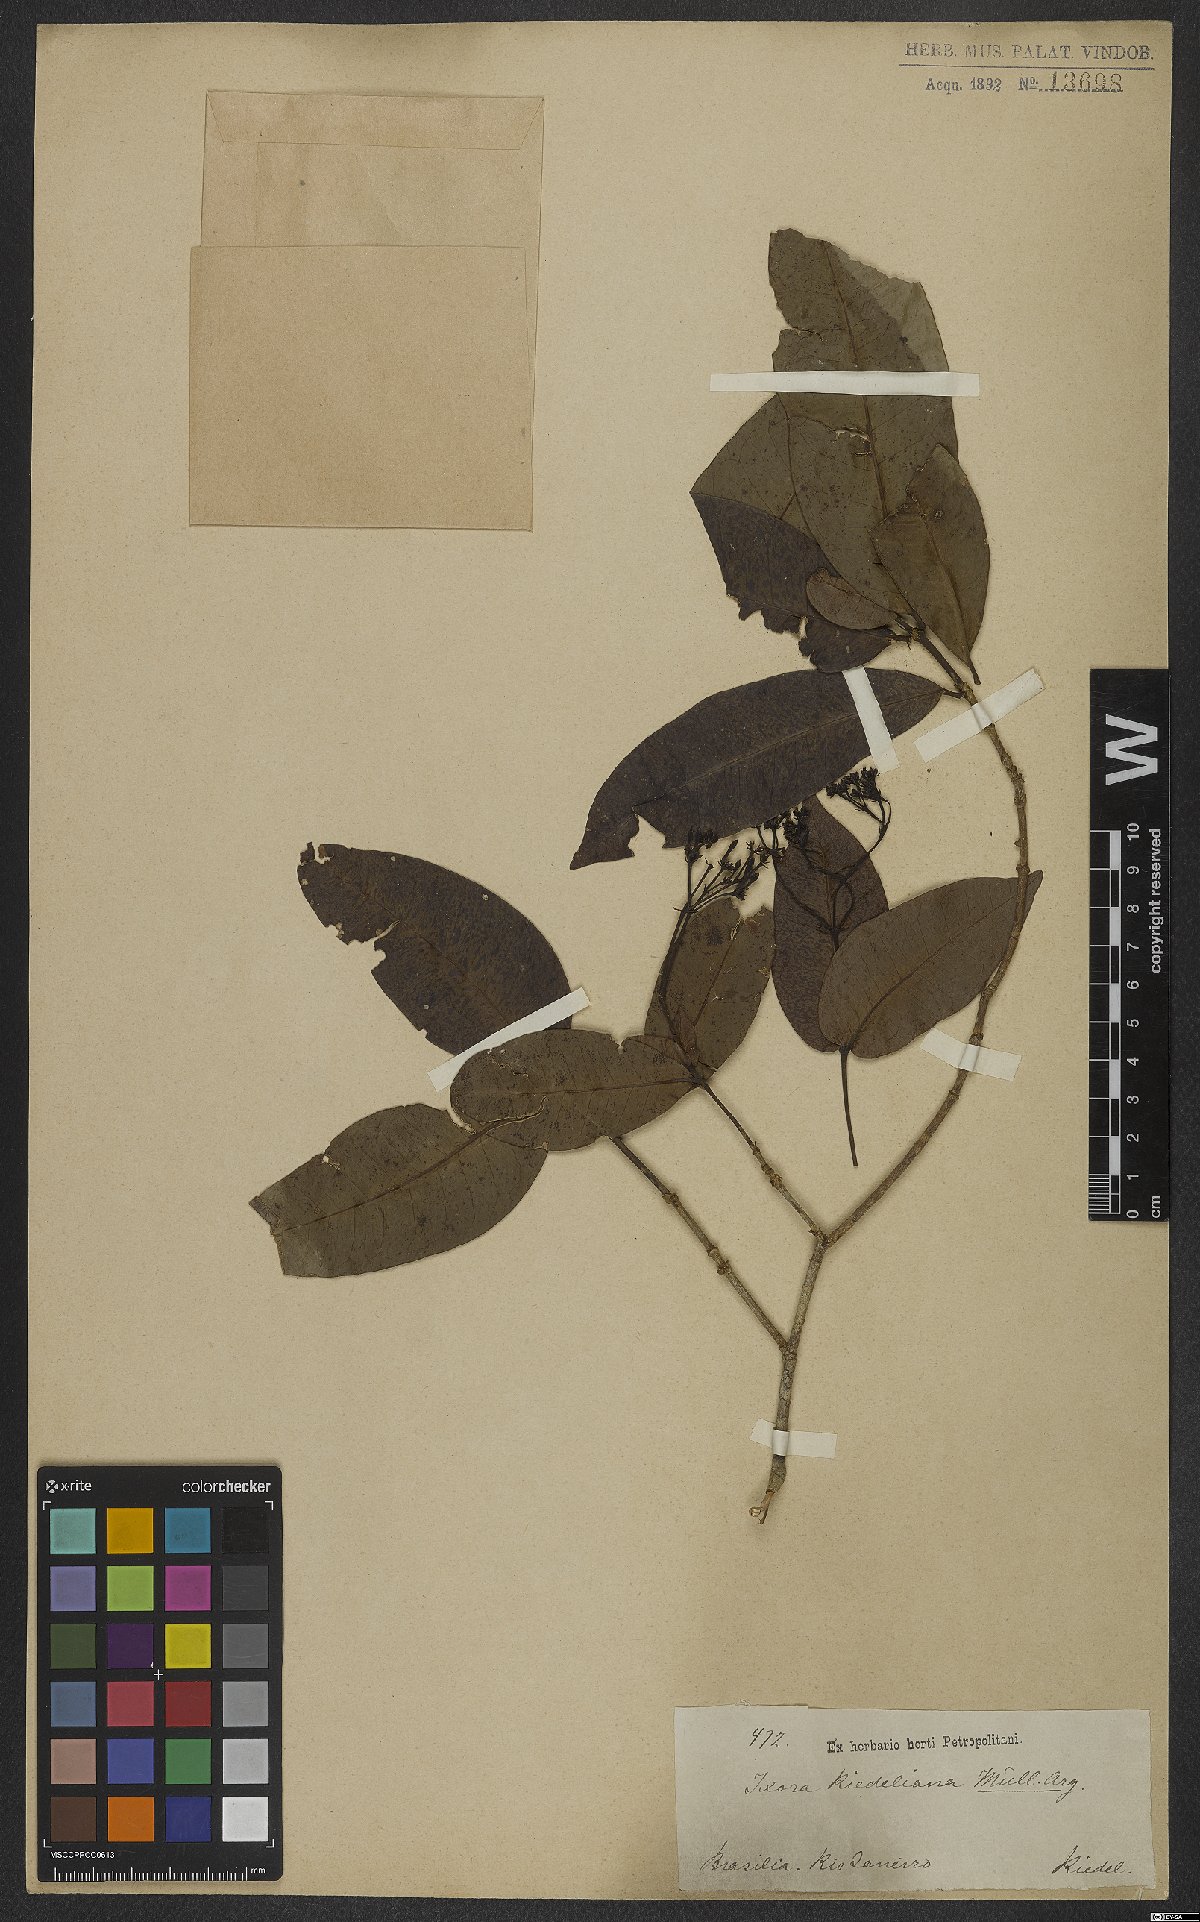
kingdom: Plantae
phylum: Tracheophyta
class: Magnoliopsida
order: Gentianales
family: Rubiaceae
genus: Ixora
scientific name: Ixora gardneriana
